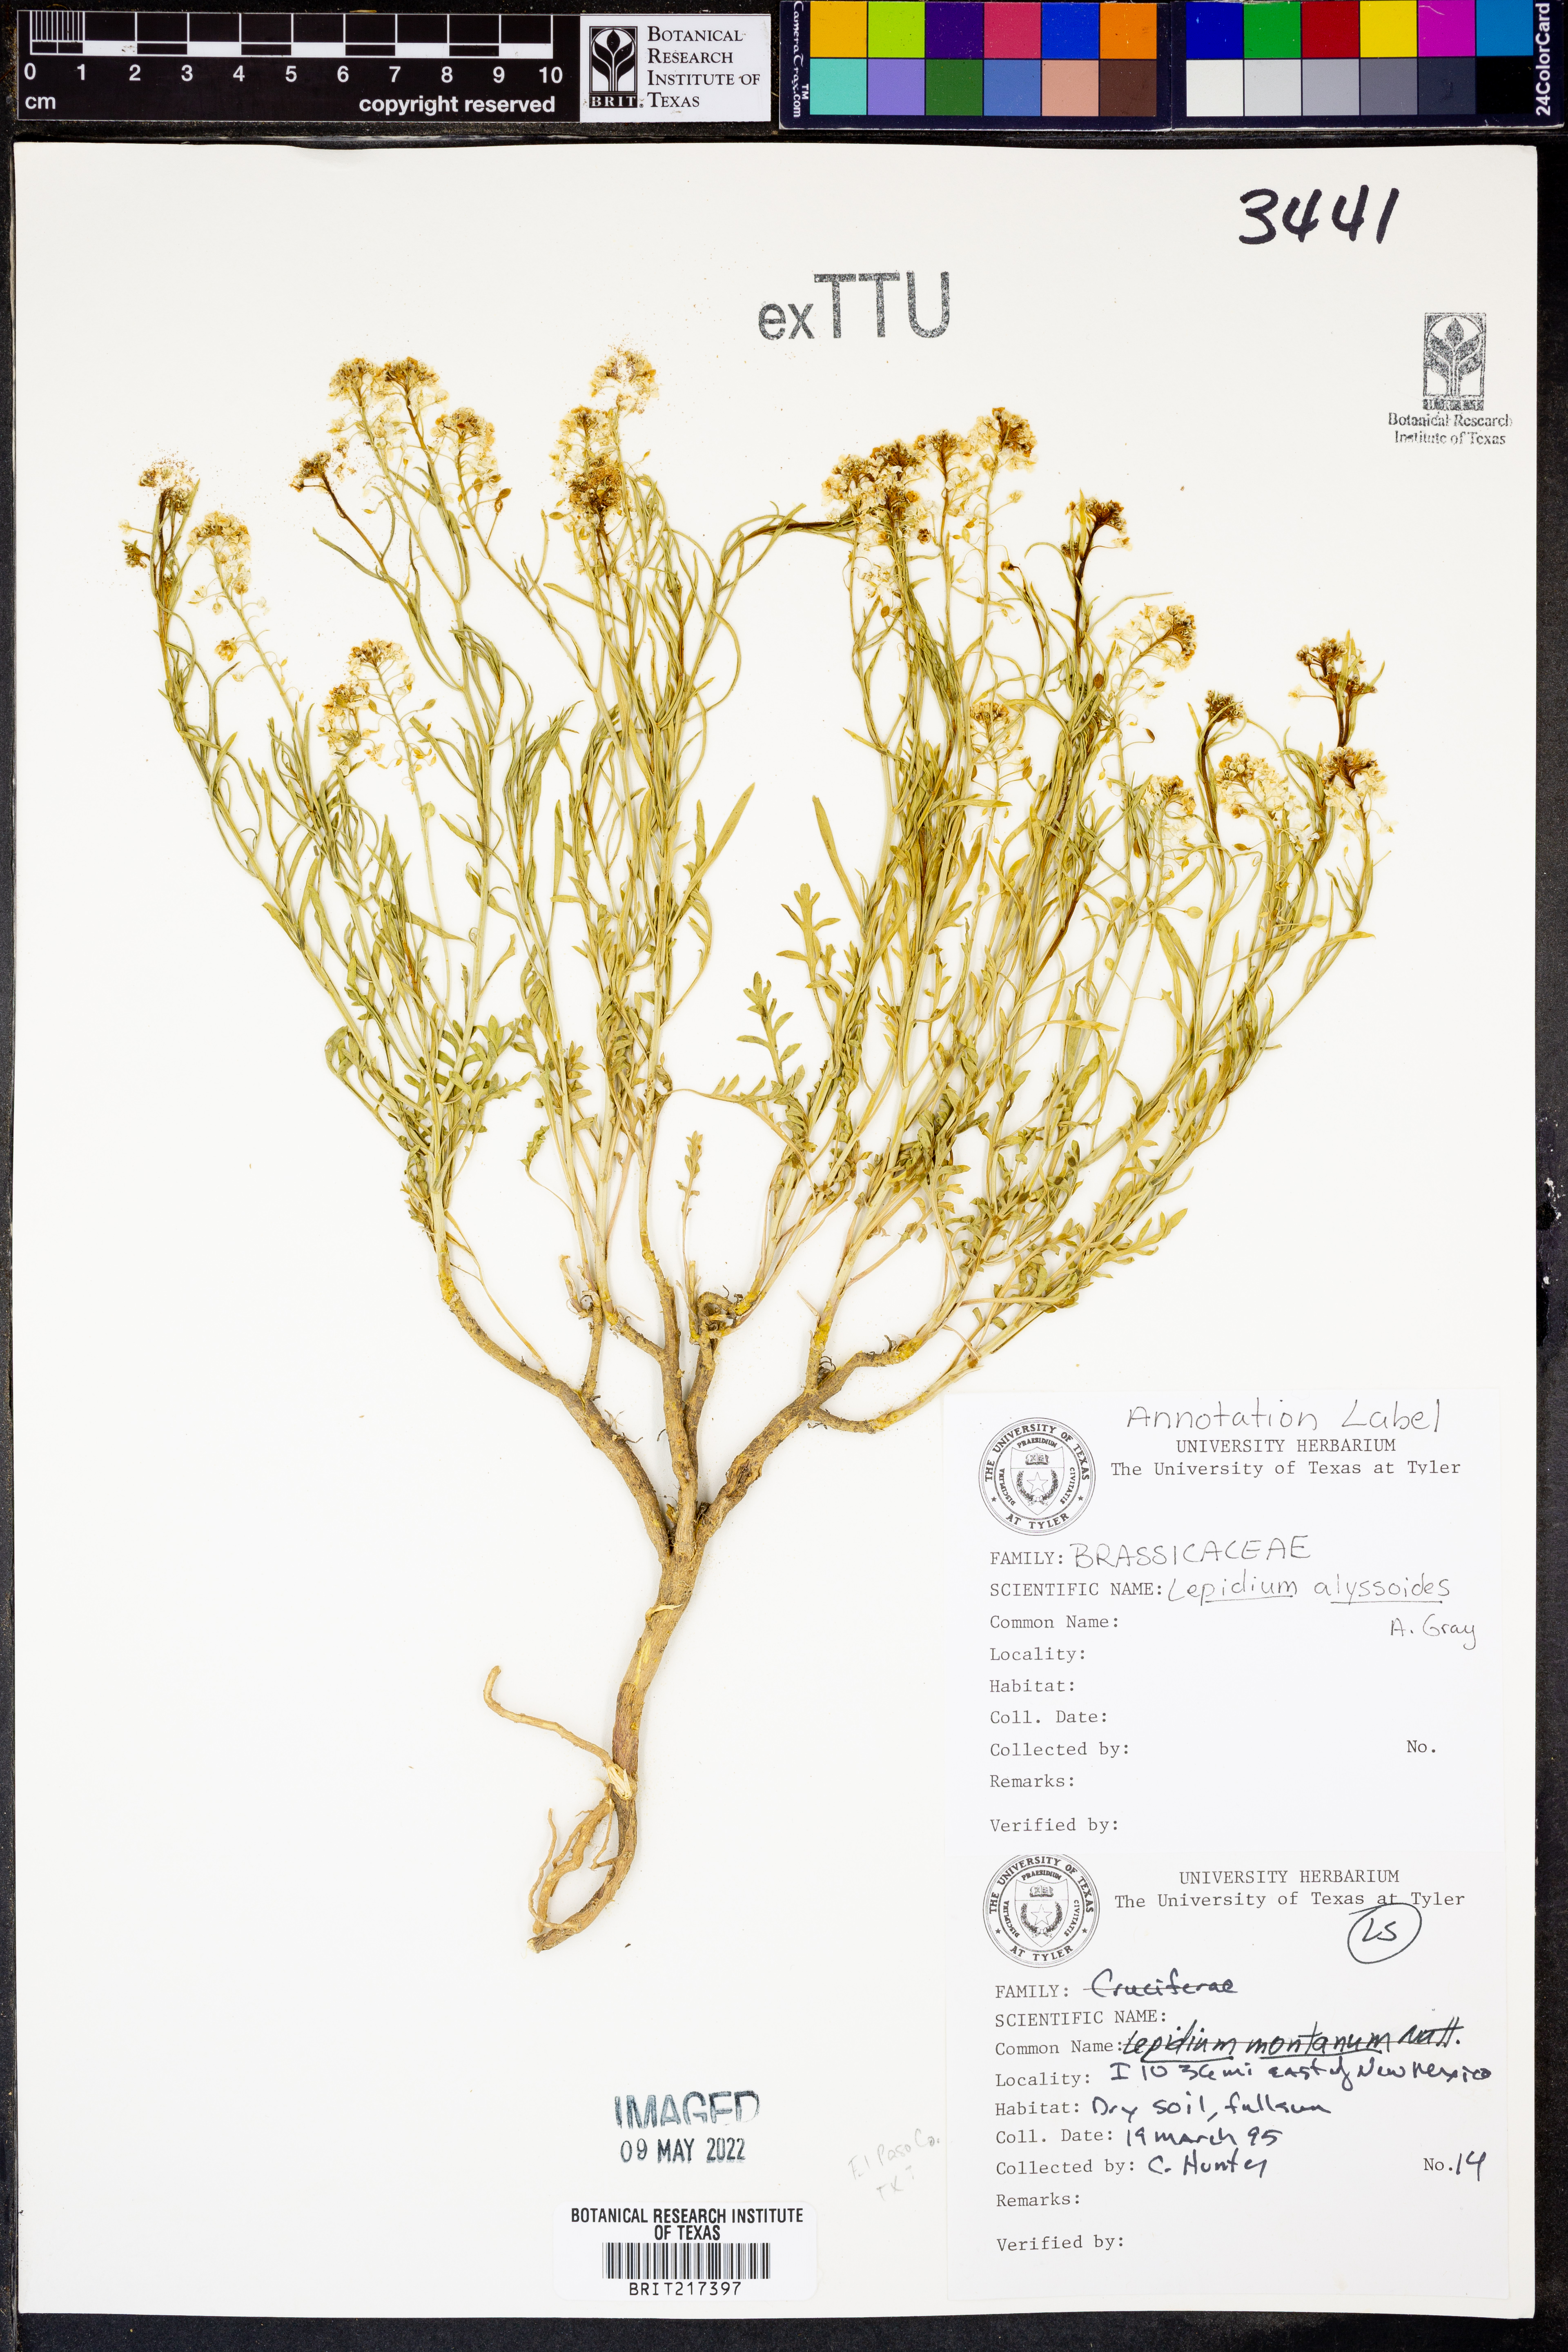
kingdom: Plantae
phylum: Tracheophyta
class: Magnoliopsida
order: Brassicales
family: Brassicaceae
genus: Lepidium
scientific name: Lepidium alyssoides
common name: Mesa pepperweed
